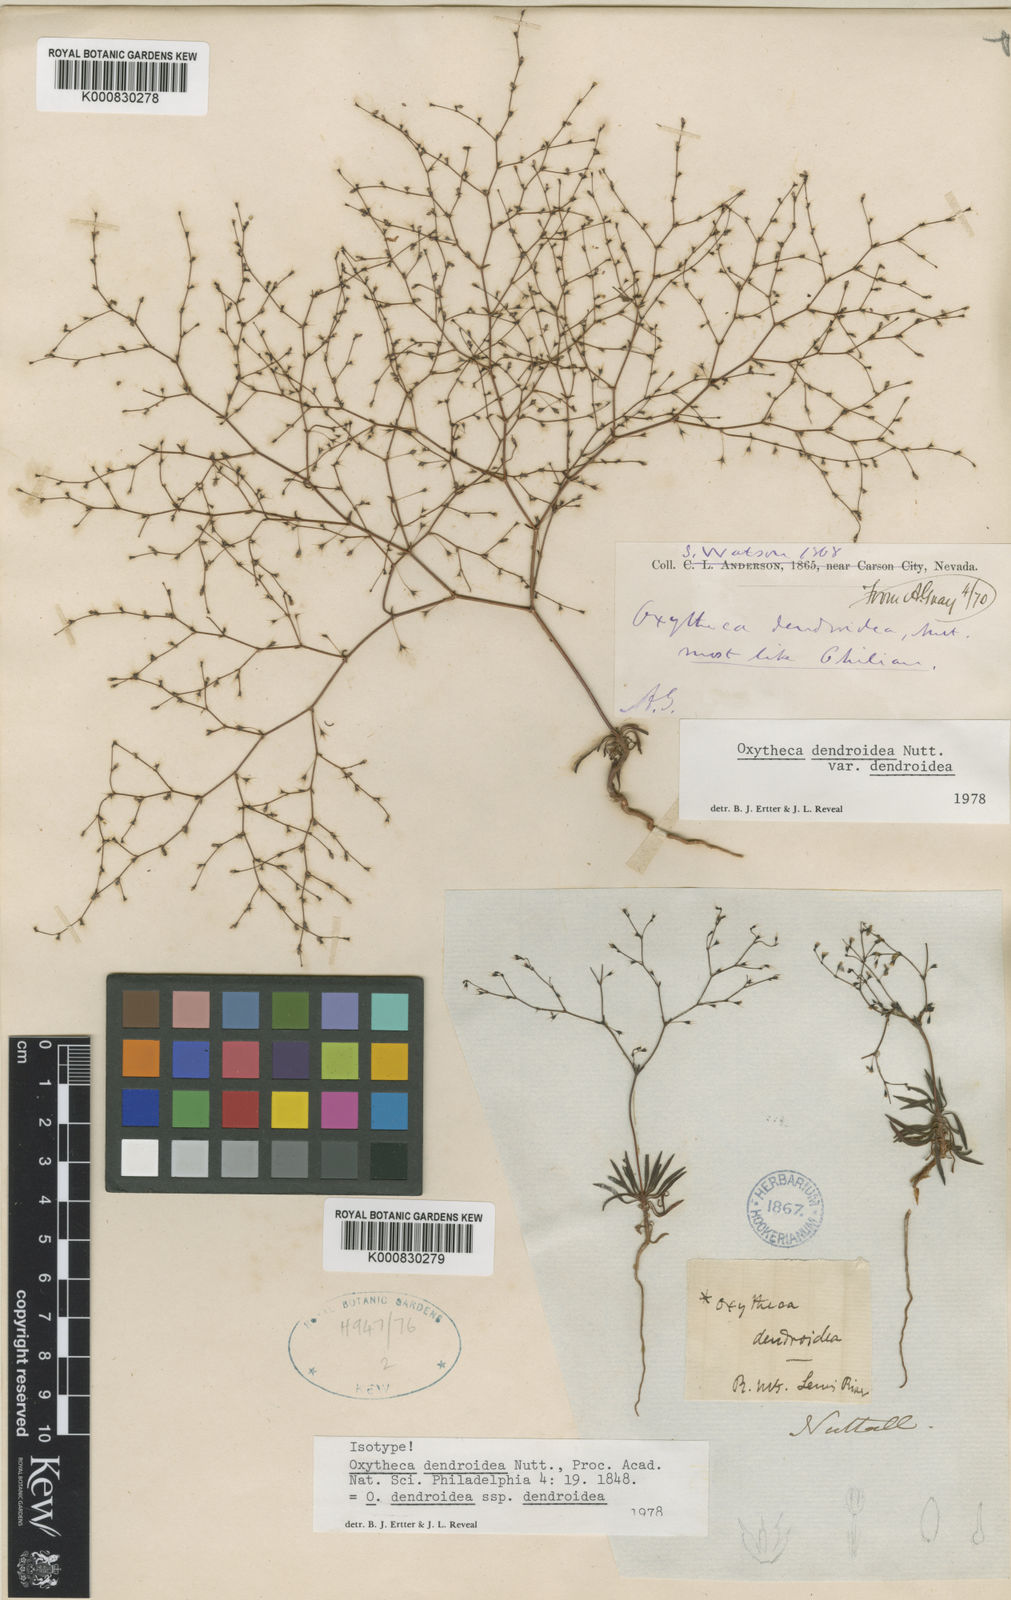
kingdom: Plantae
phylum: Tracheophyta
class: Magnoliopsida
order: Caryophyllales
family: Polygonaceae
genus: Oxytheca
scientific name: Oxytheca dendroidea
